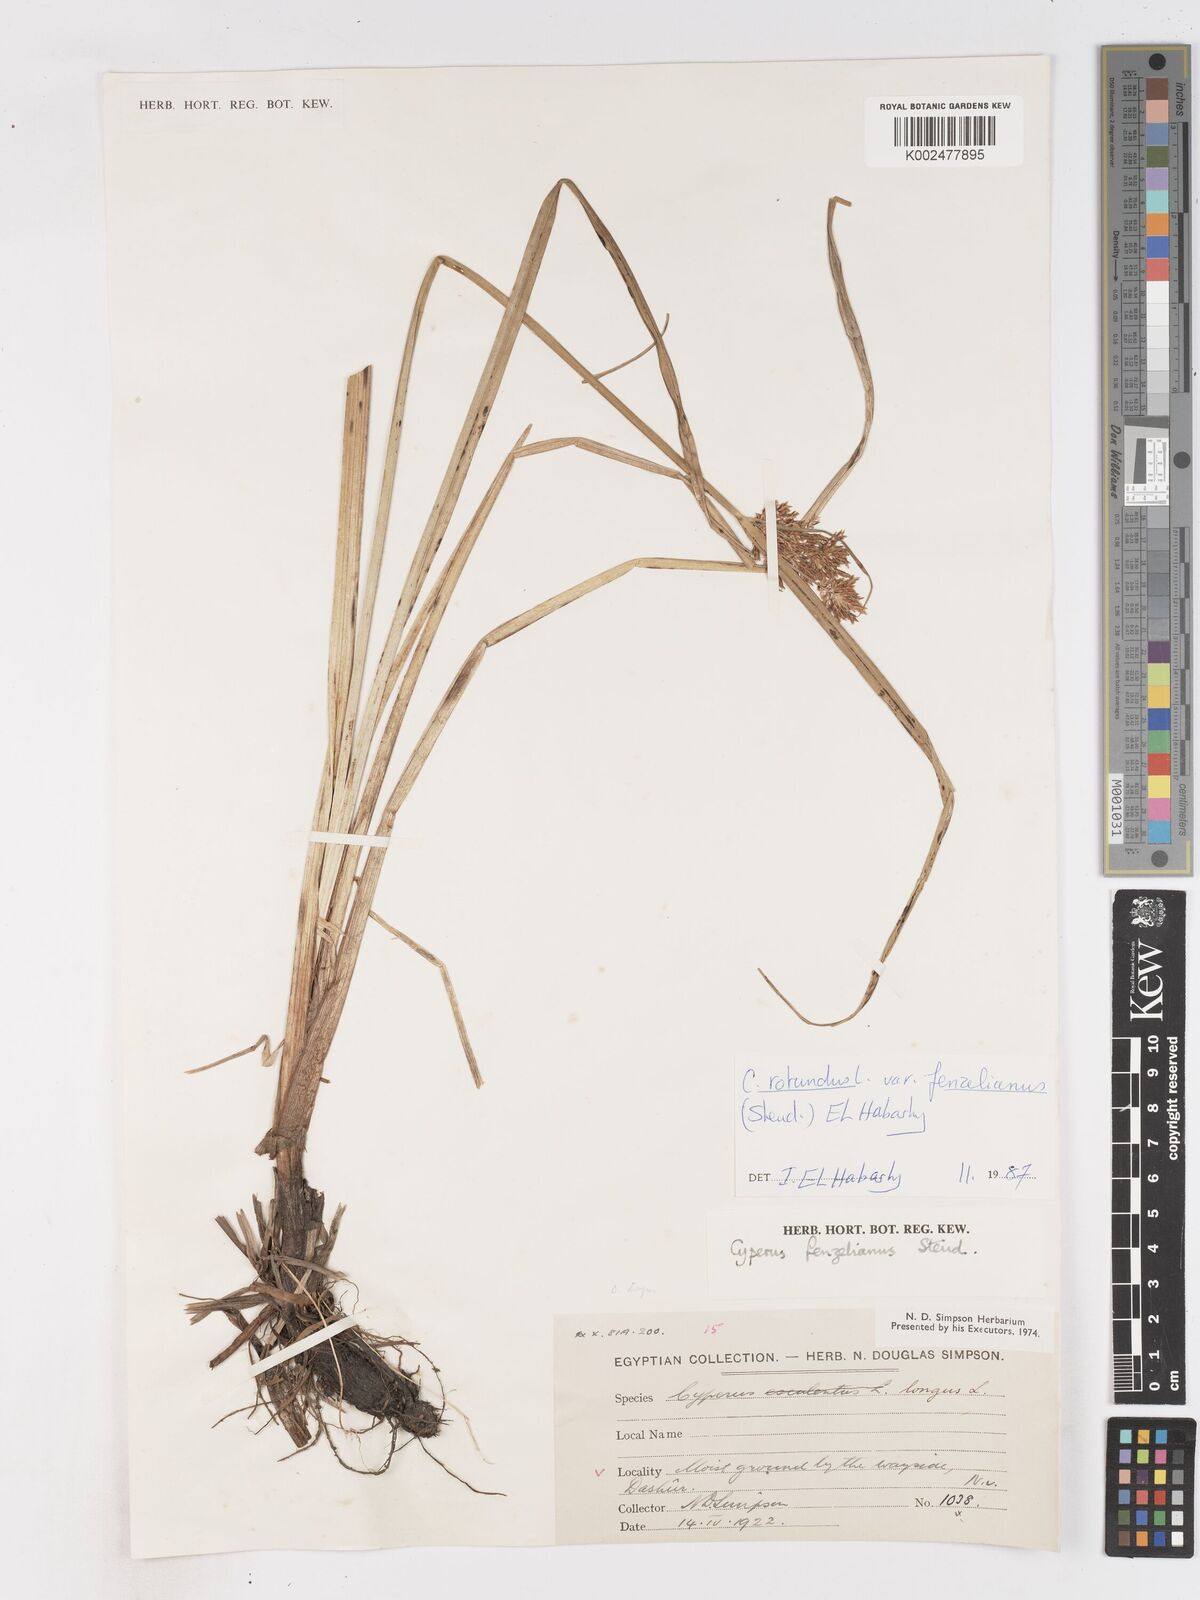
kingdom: Plantae
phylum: Tracheophyta
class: Liliopsida
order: Poales
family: Cyperaceae
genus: Cyperus
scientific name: Cyperus longus
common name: Galingale
